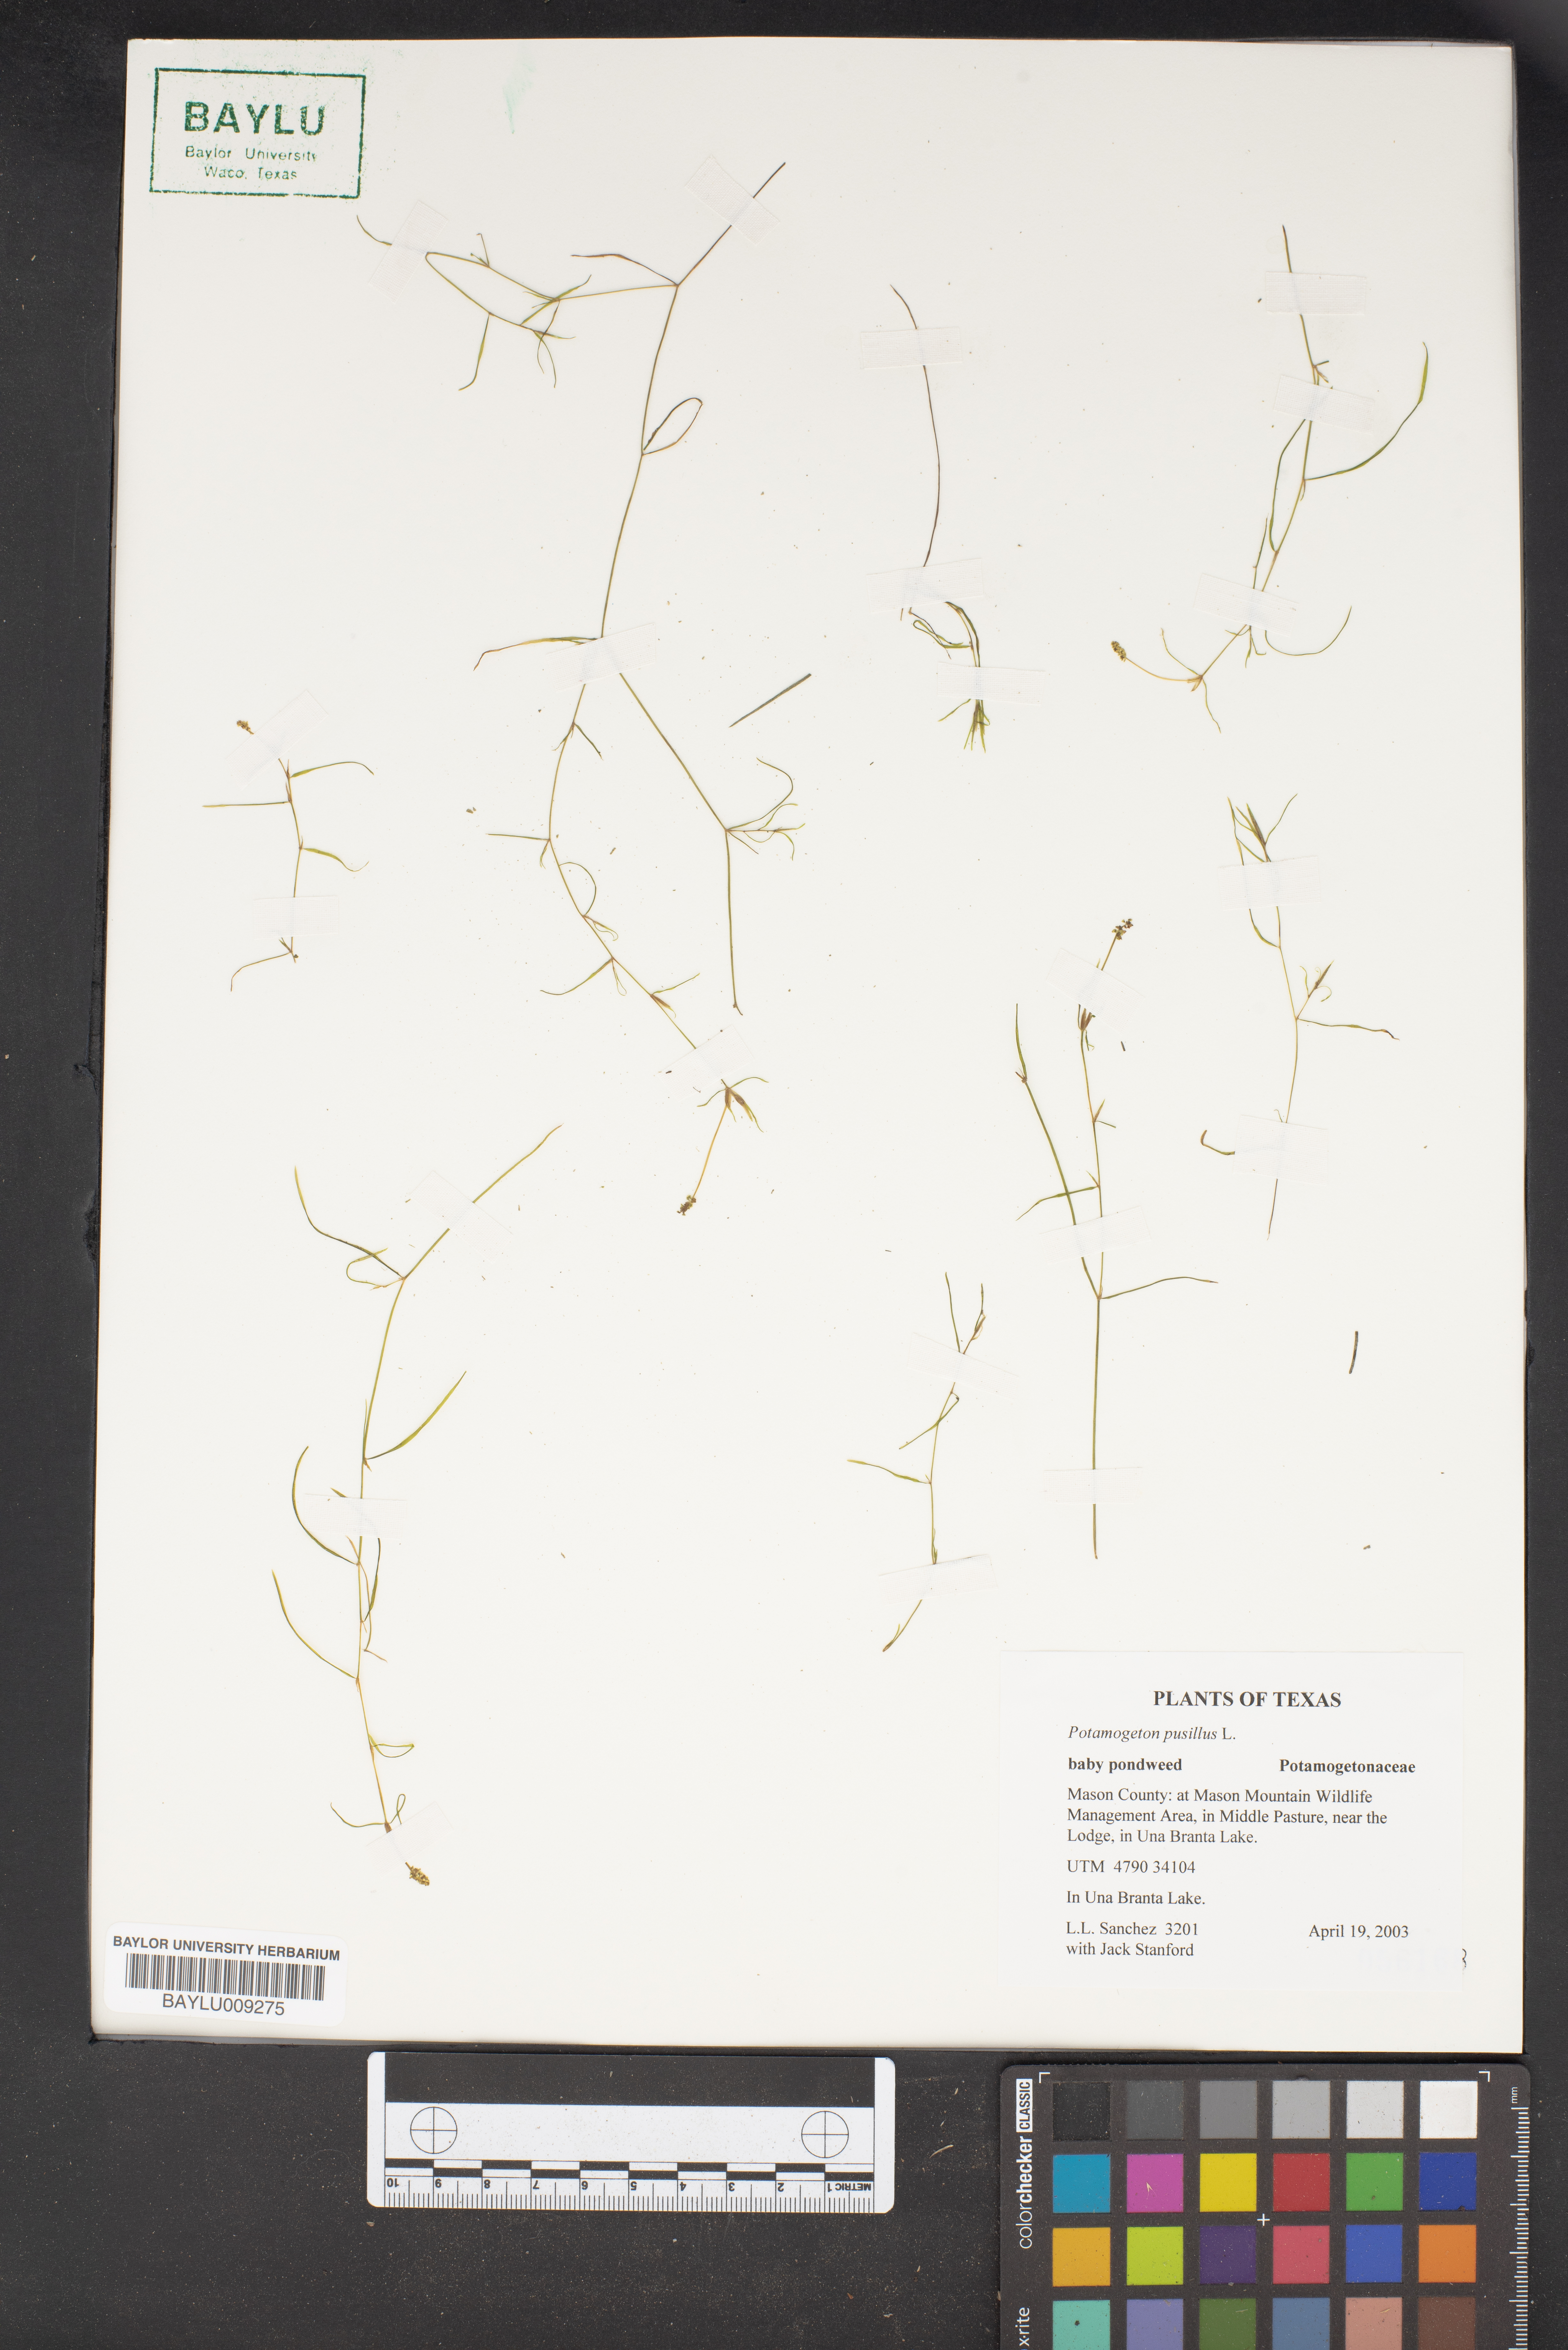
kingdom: Plantae
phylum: Tracheophyta
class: Liliopsida
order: Alismatales
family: Potamogetonaceae
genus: Potamogeton
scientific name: Potamogeton pusillus
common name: Lesser pondweed
